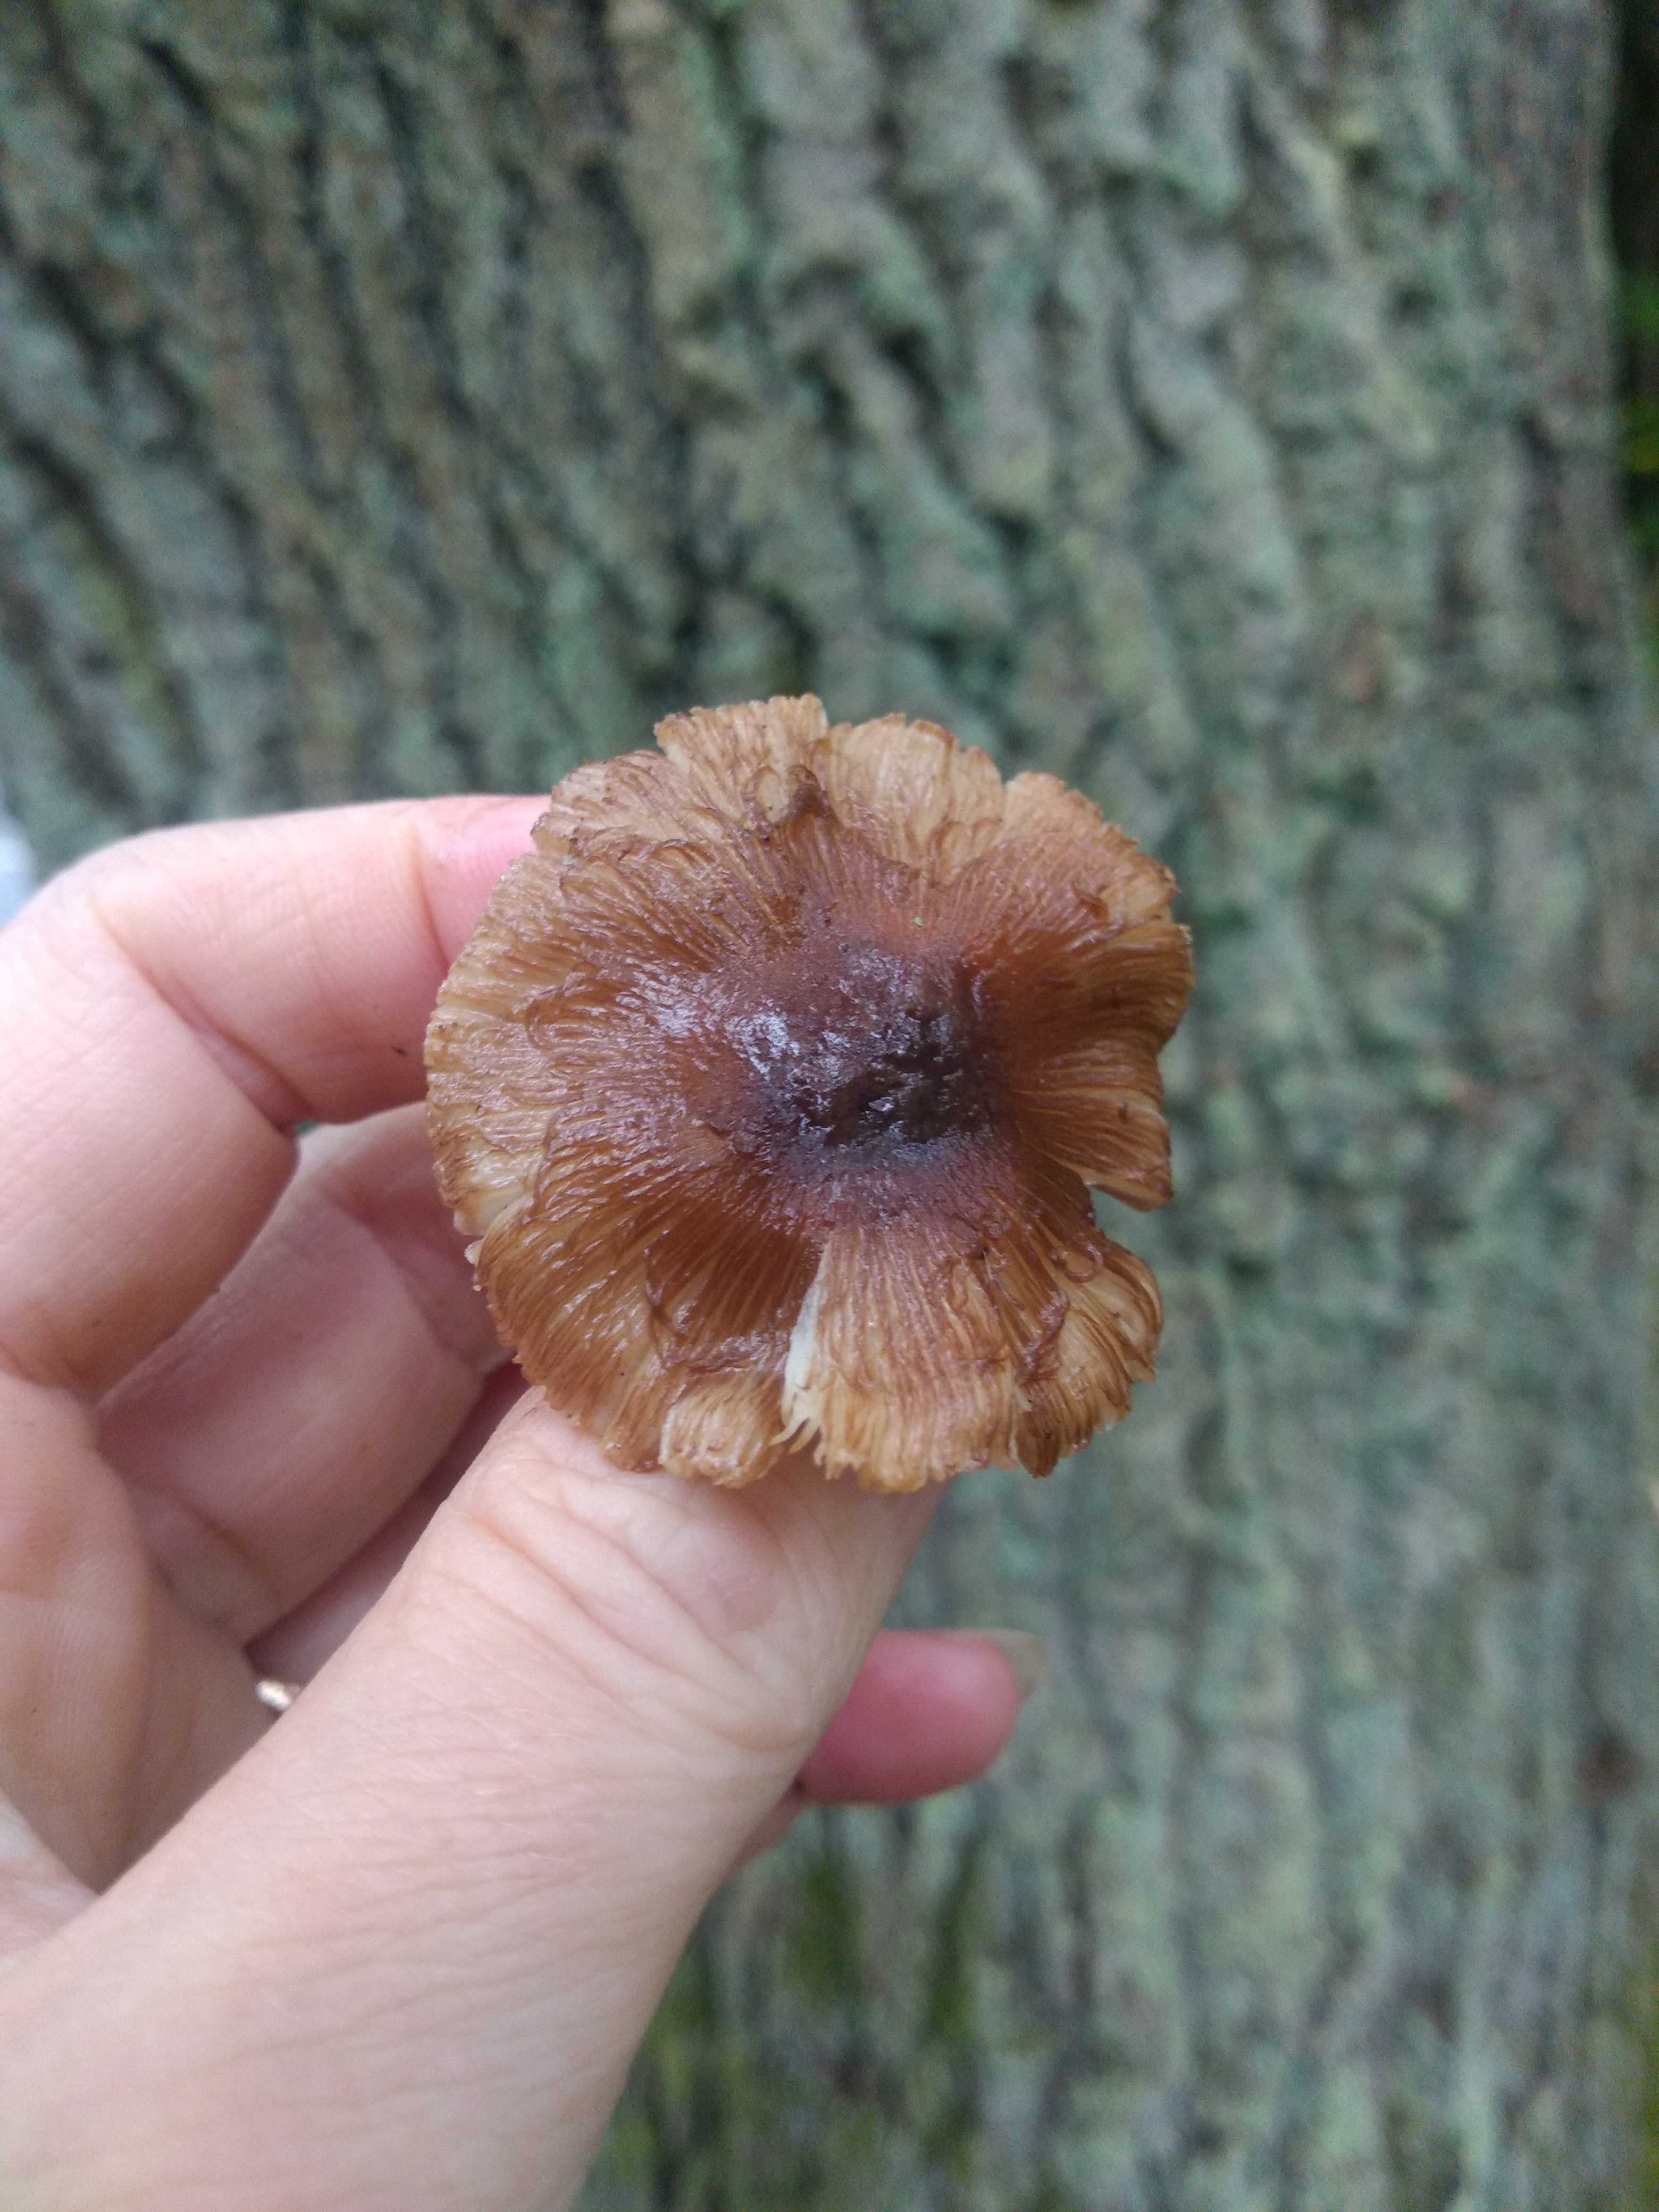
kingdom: Fungi
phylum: Basidiomycota
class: Agaricomycetes
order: Agaricales
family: Inocybaceae
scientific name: Inocybaceae
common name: trævlhatfamilien
